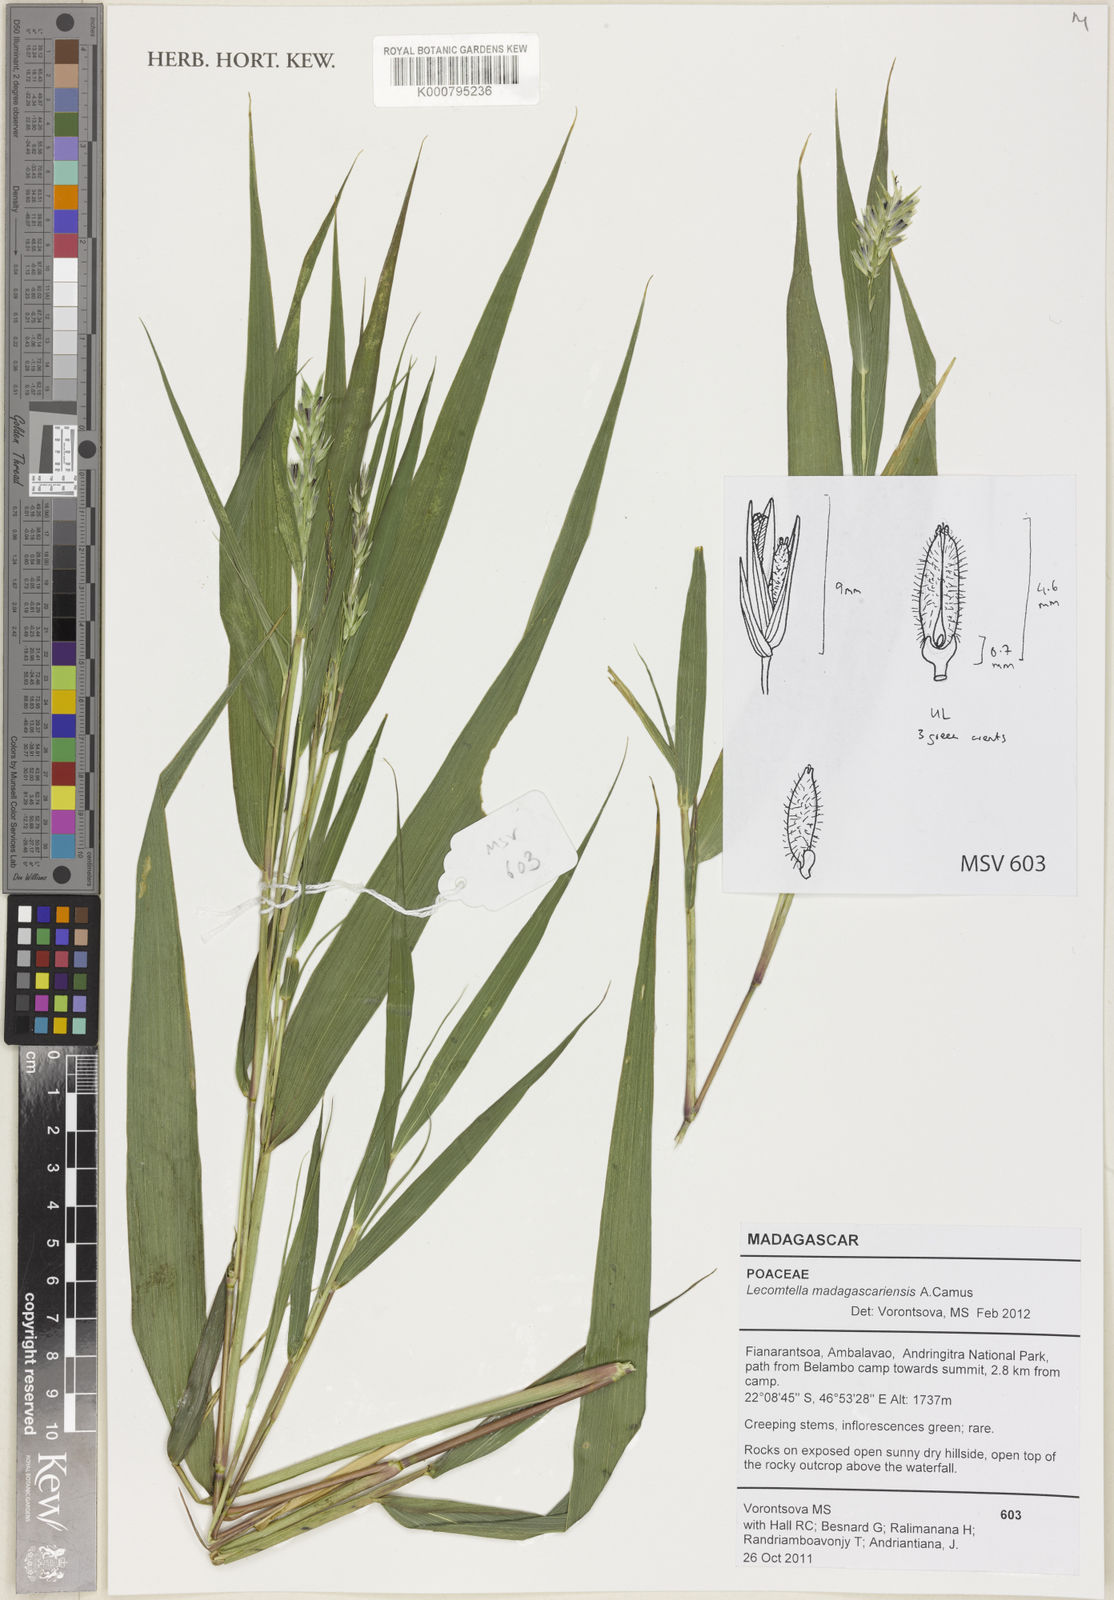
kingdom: Plantae
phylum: Tracheophyta
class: Liliopsida
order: Poales
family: Poaceae
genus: Lecomtella
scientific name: Lecomtella madagascariensis
